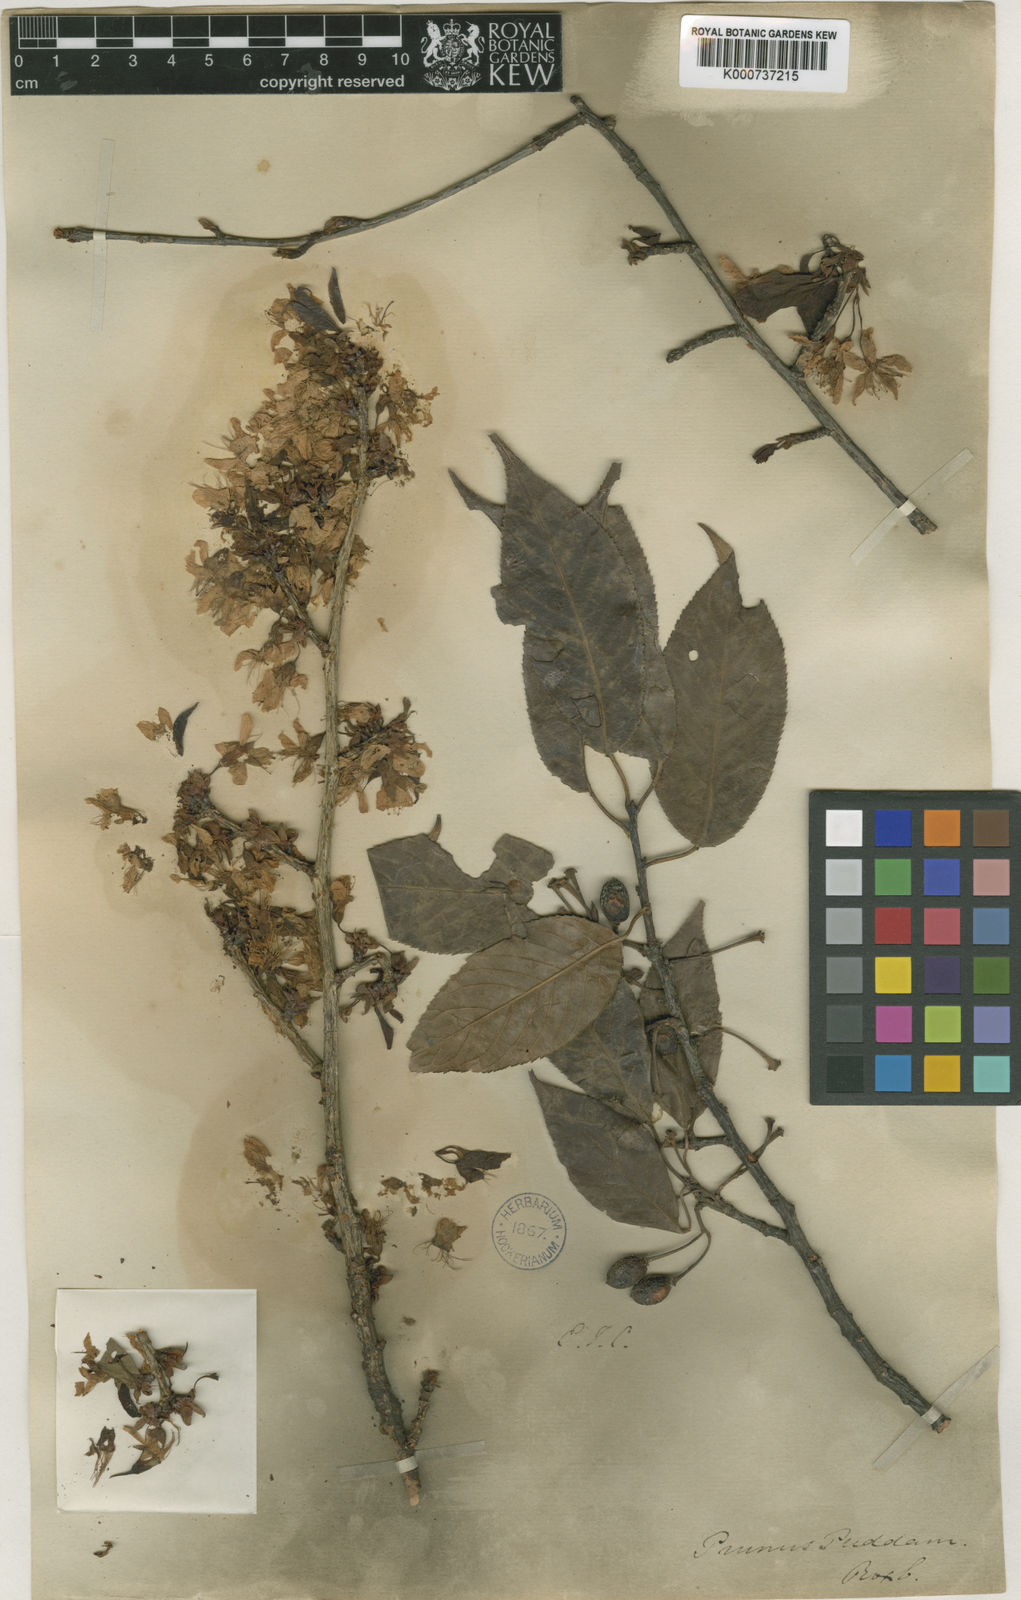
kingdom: Plantae
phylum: Tracheophyta
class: Magnoliopsida
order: Rosales
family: Rosaceae
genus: Prunus
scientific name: Prunus cerasoides
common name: Wild himalayan cherry
